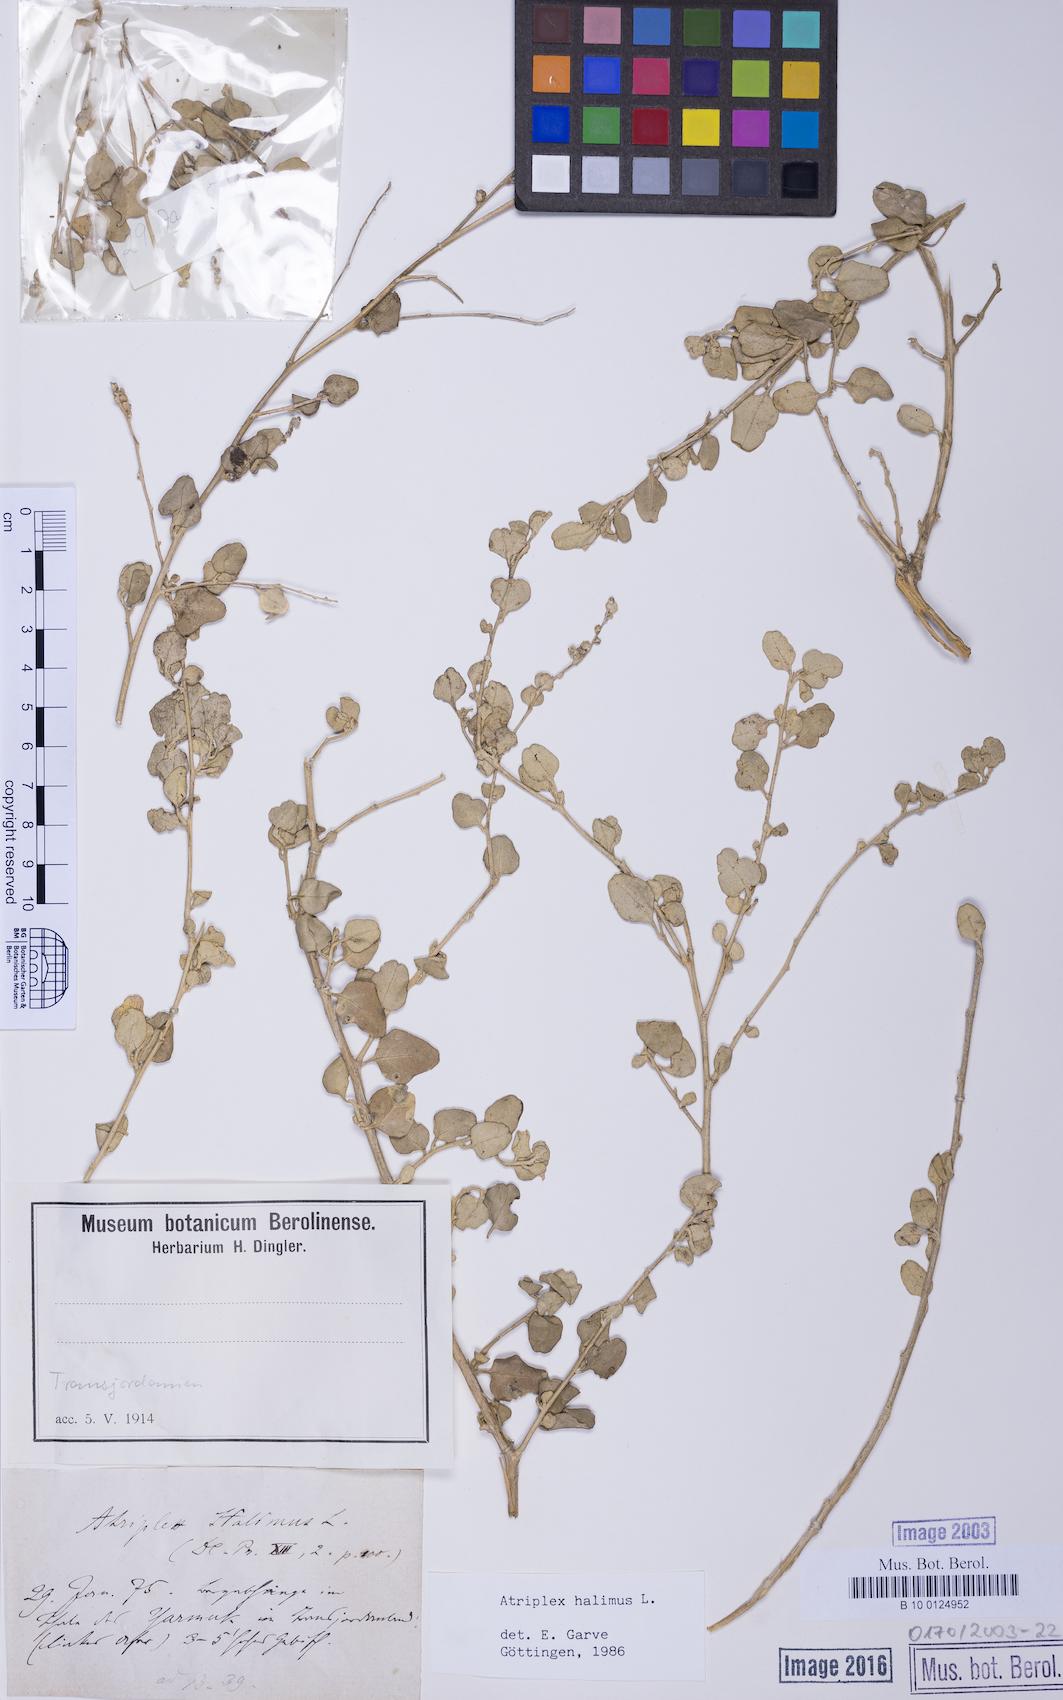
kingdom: Plantae
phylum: Tracheophyta
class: Magnoliopsida
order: Caryophyllales
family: Amaranthaceae
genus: Atriplex
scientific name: Atriplex halimus
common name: Shrubby orache
